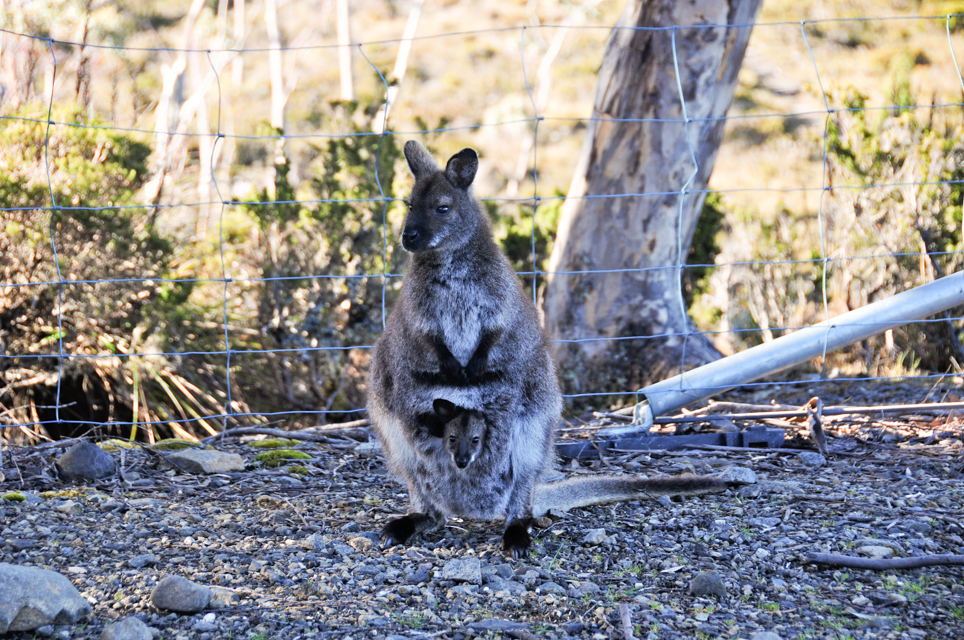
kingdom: Animalia
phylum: Chordata
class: Mammalia
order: Diprotodontia
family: Macropodidae
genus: Macropus
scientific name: Macropus rufogriseus
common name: Red-necked wallaby
